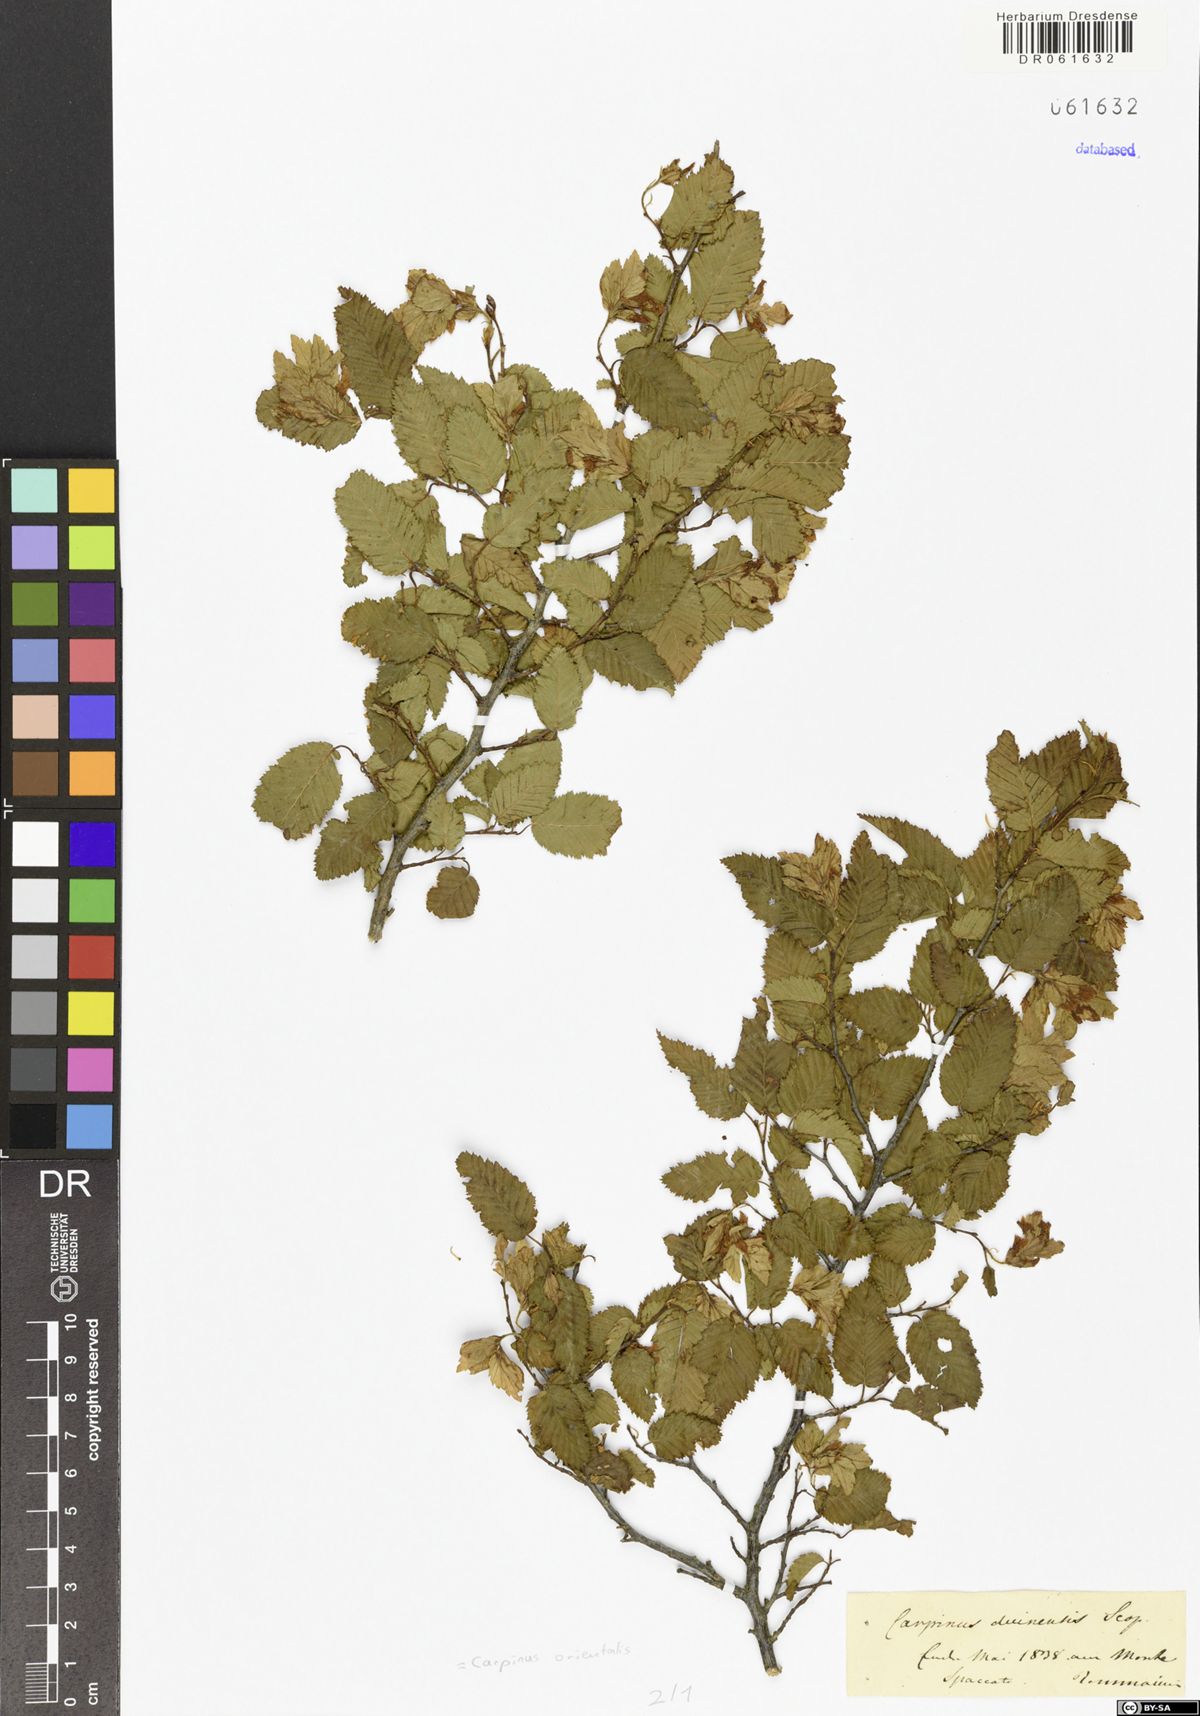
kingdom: Plantae
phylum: Tracheophyta
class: Magnoliopsida
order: Fagales
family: Betulaceae
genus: Carpinus
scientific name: Carpinus orientalis
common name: Eastern hornbeam
